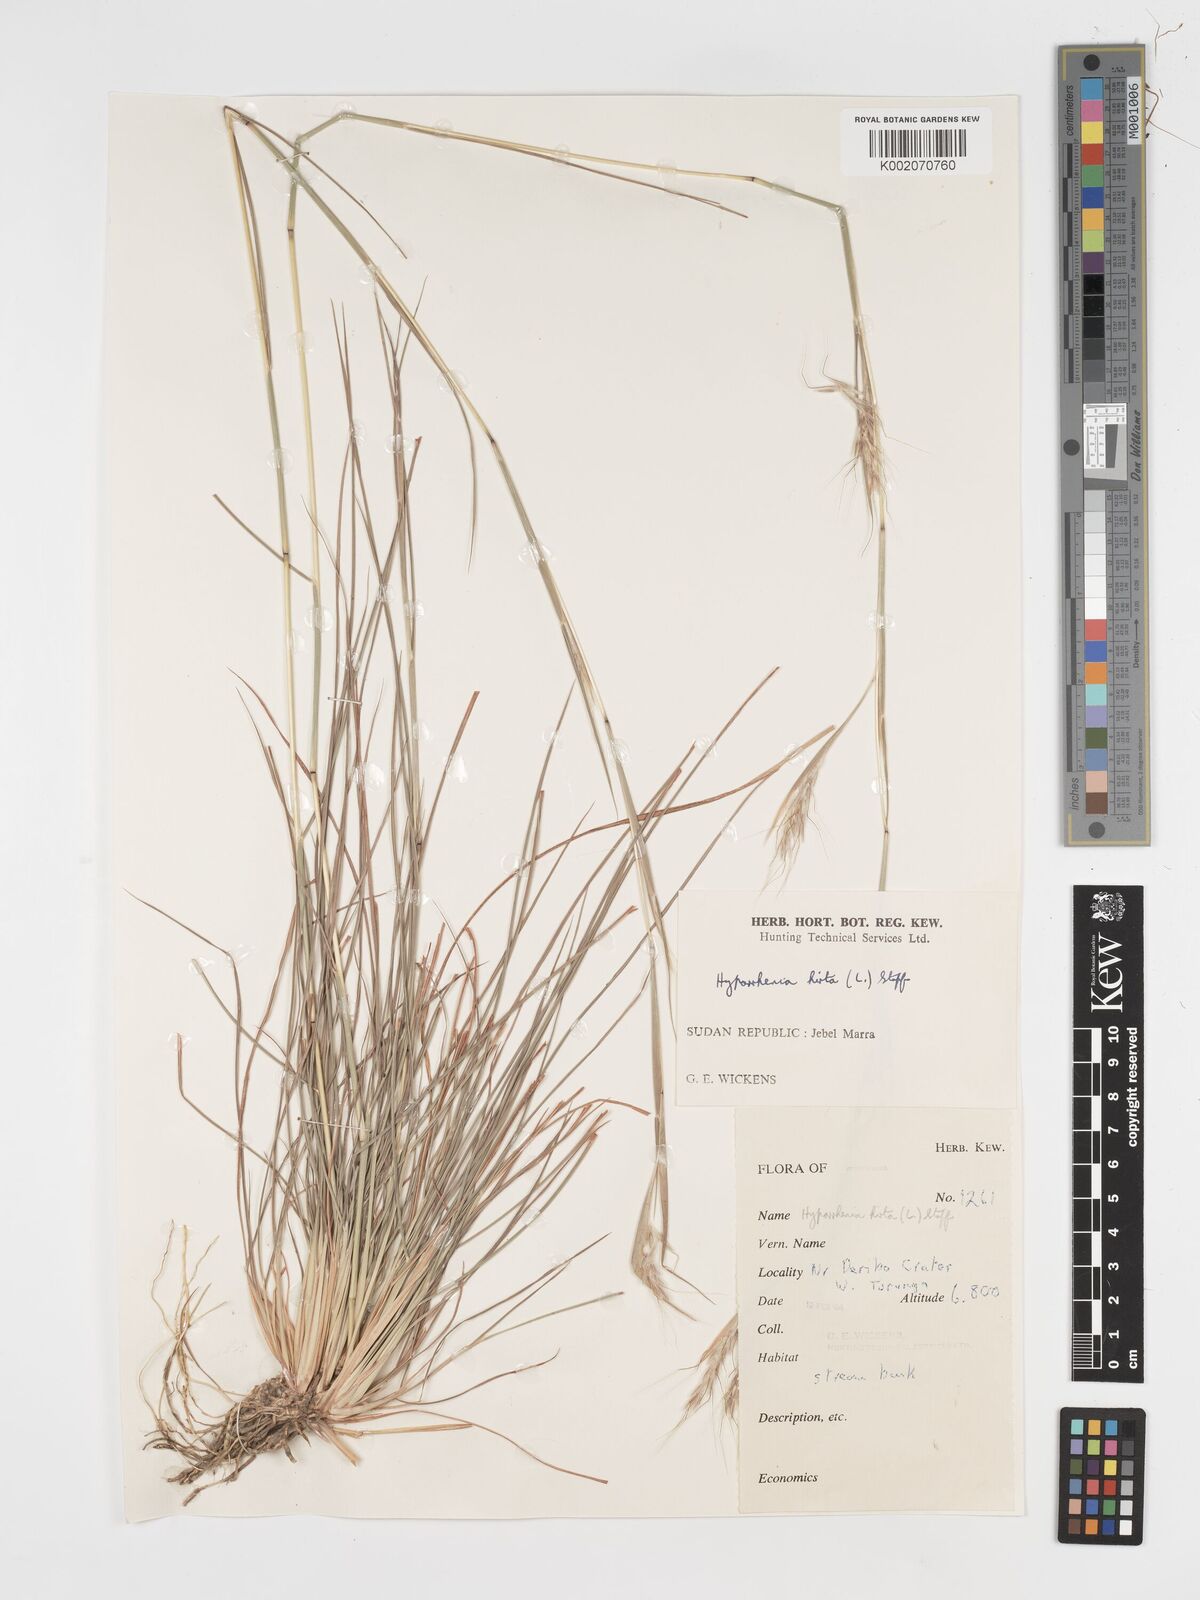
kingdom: Plantae
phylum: Tracheophyta
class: Liliopsida
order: Poales
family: Poaceae
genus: Hyparrhenia
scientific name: Hyparrhenia hirta
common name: Thatching grass
